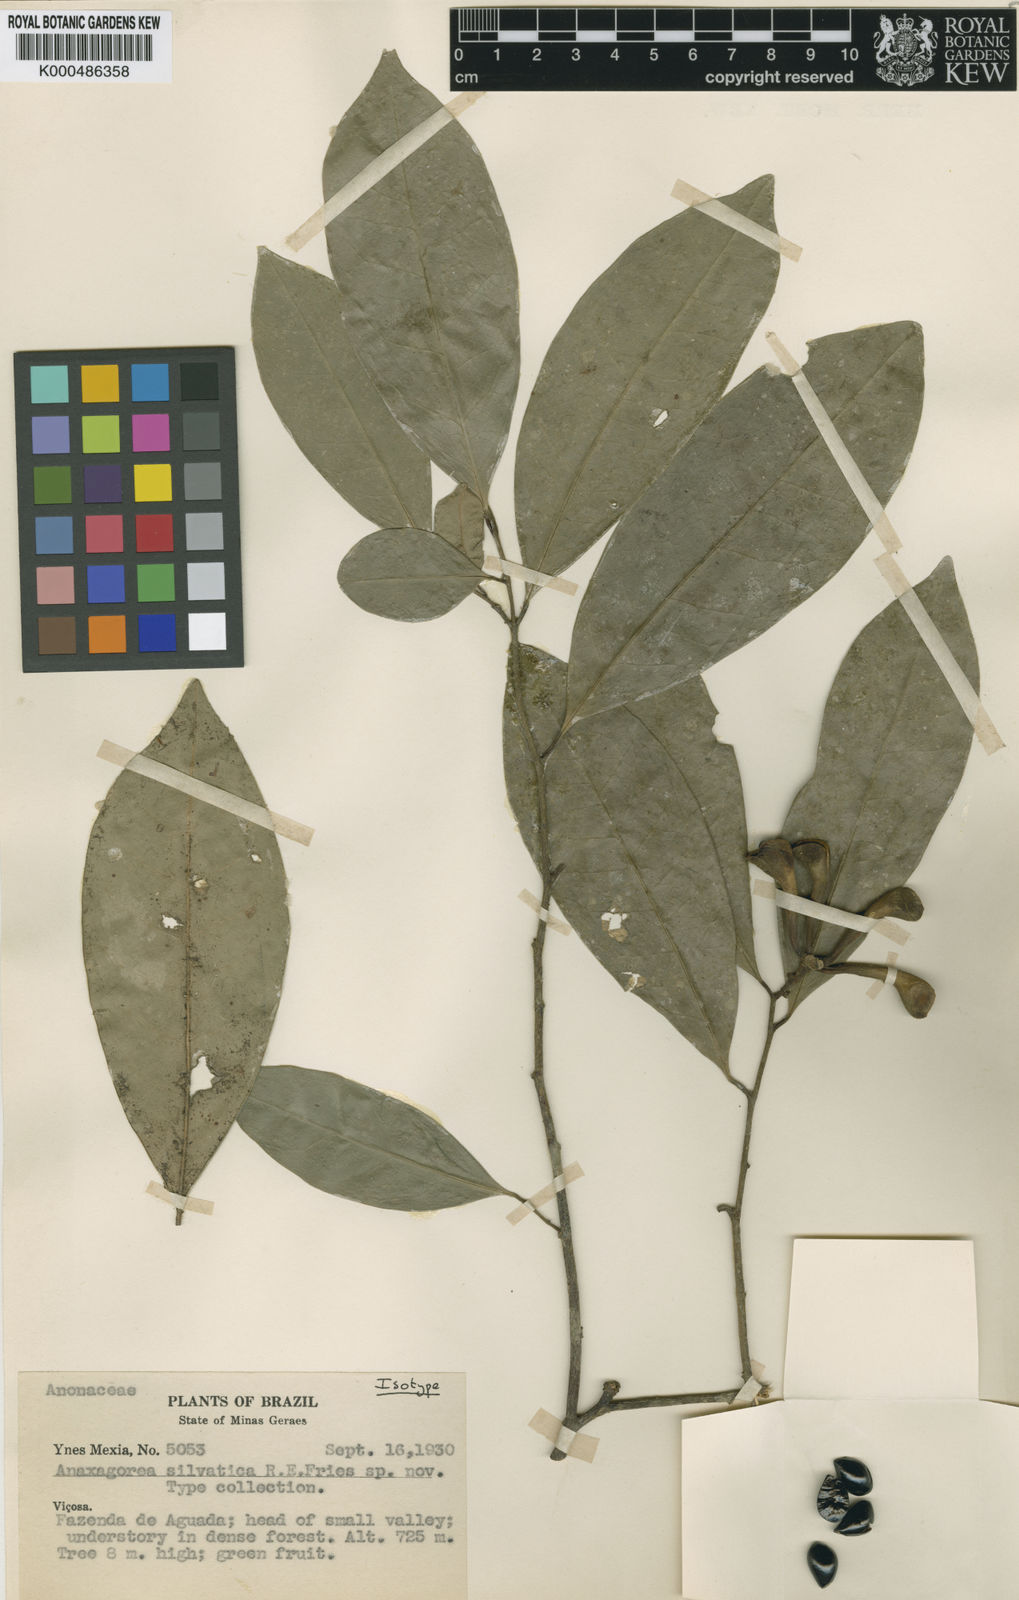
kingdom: Plantae
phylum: Tracheophyta
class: Magnoliopsida
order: Magnoliales
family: Annonaceae
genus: Anaxagorea
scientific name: Anaxagorea silvatica
